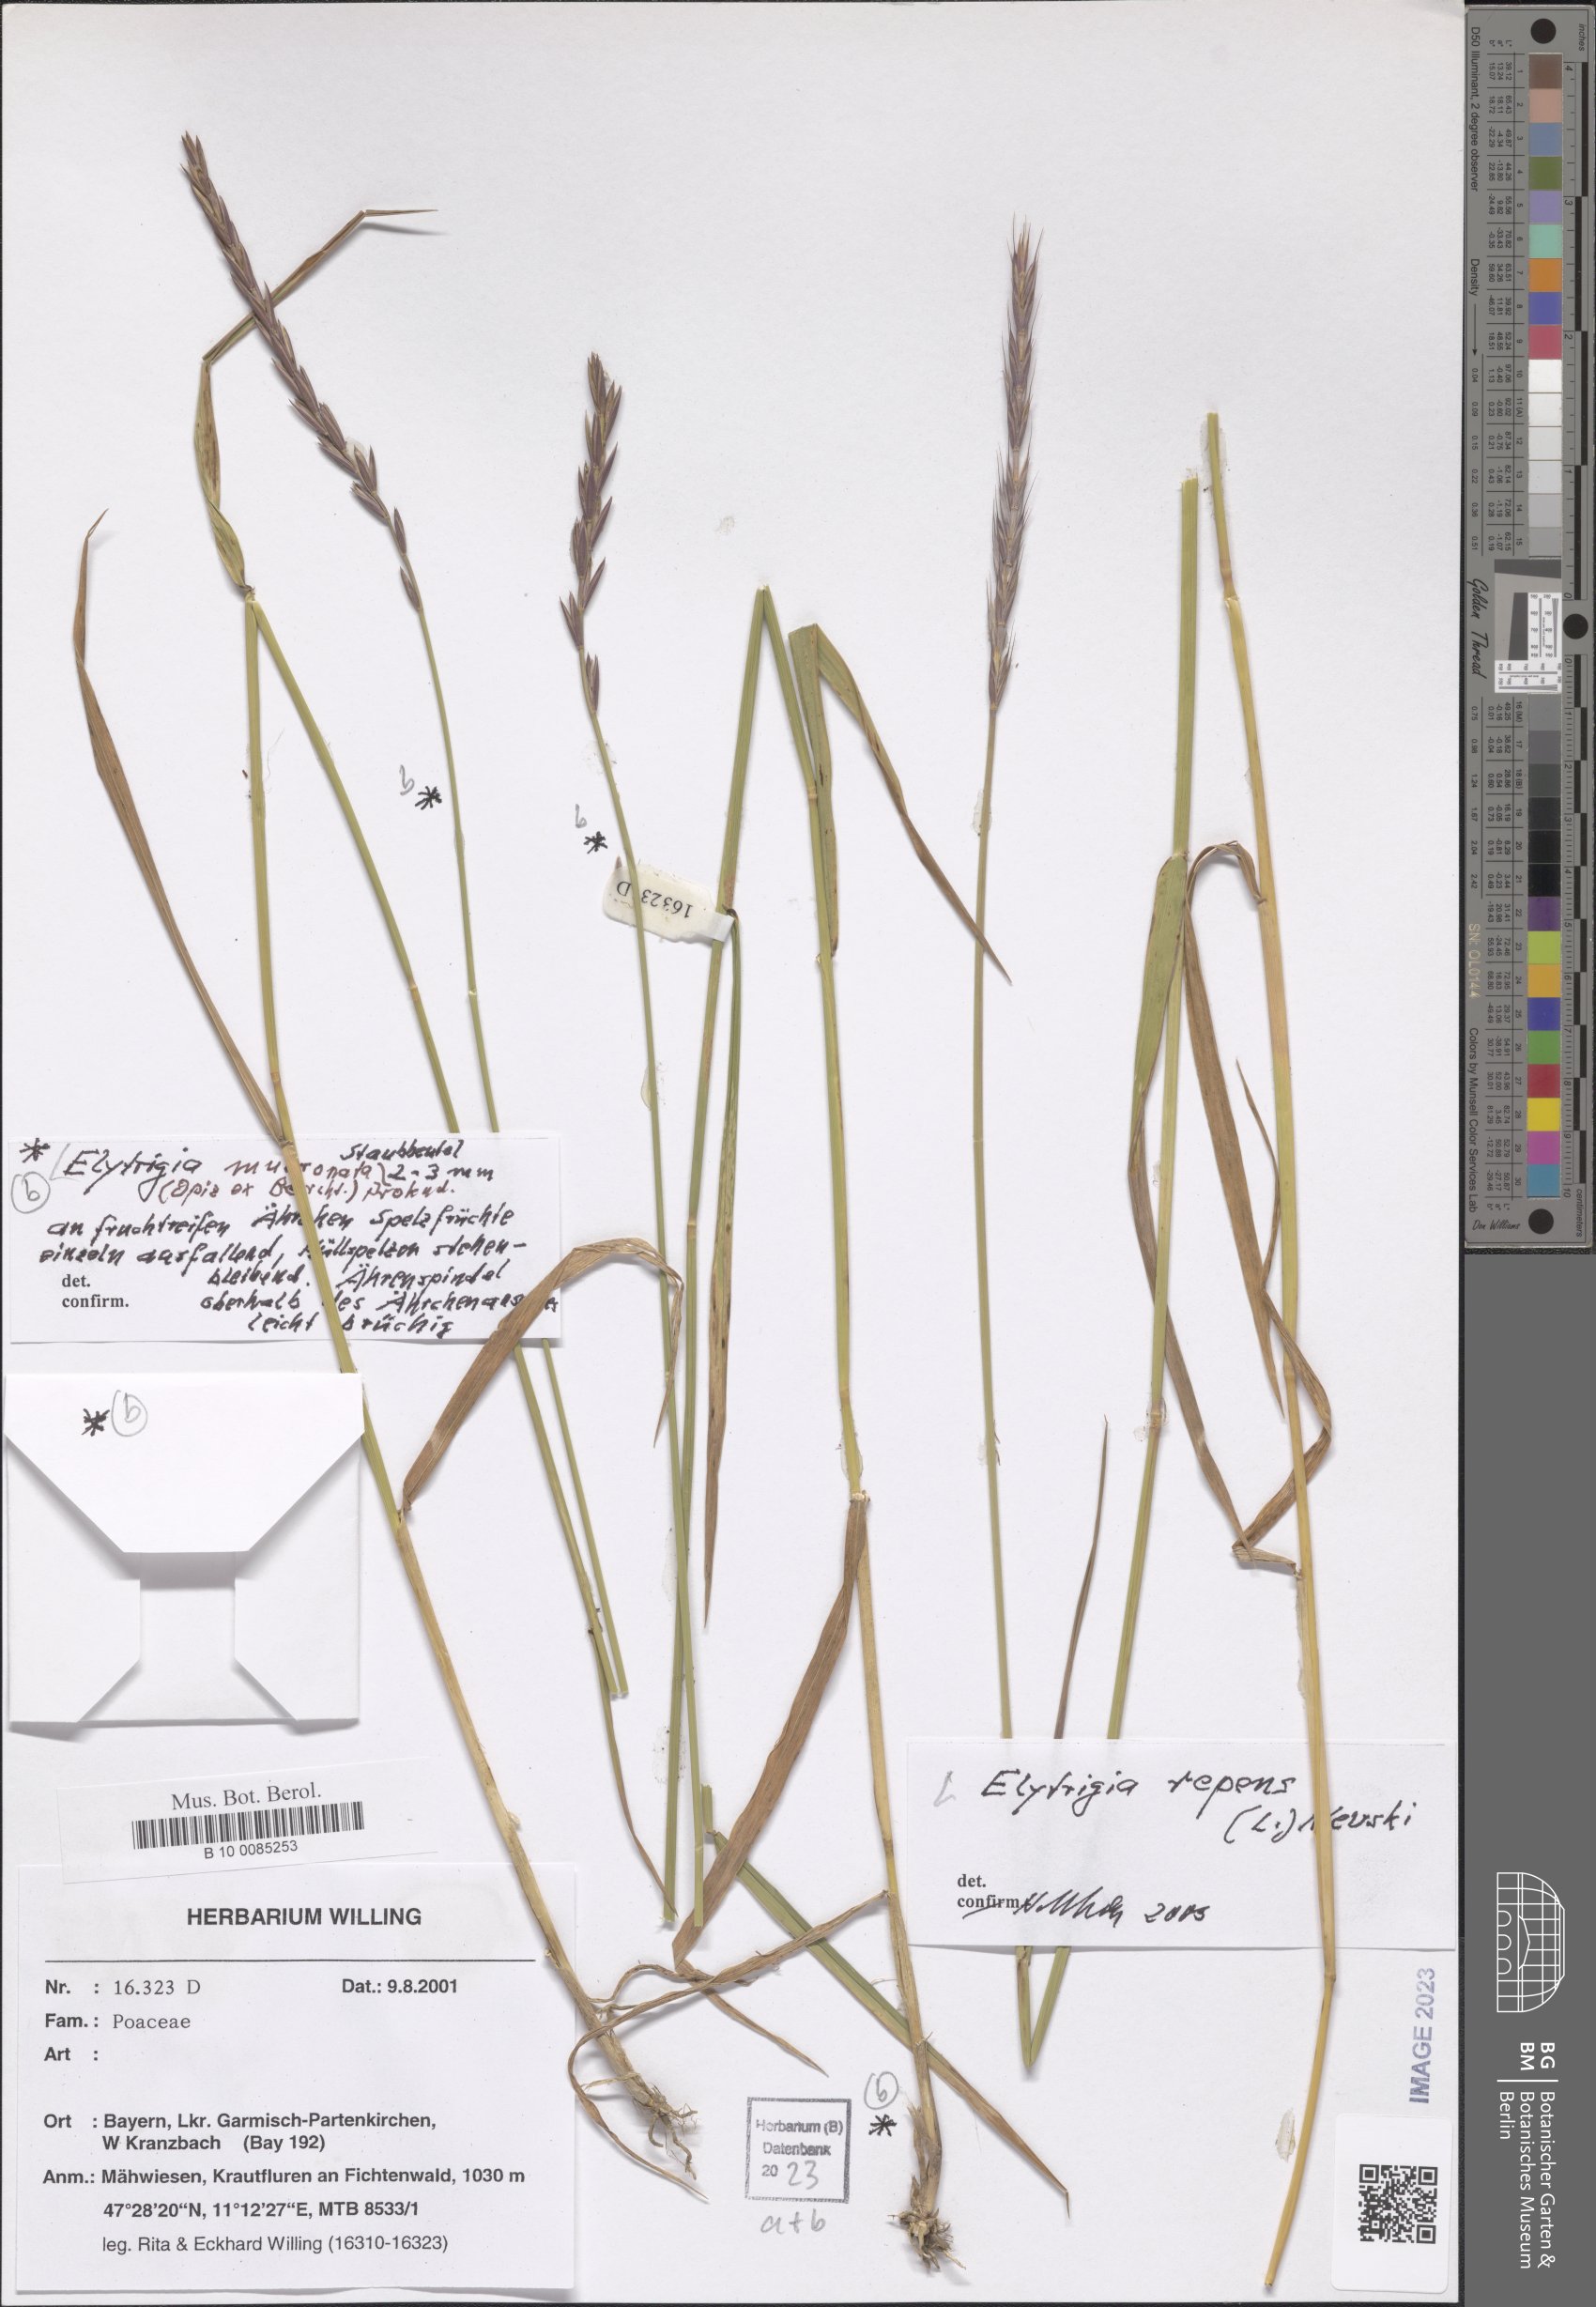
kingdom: Plantae
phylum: Tracheophyta
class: Liliopsida
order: Poales
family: Poaceae
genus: Thinoelymus
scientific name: Thinoelymus mucronatus
